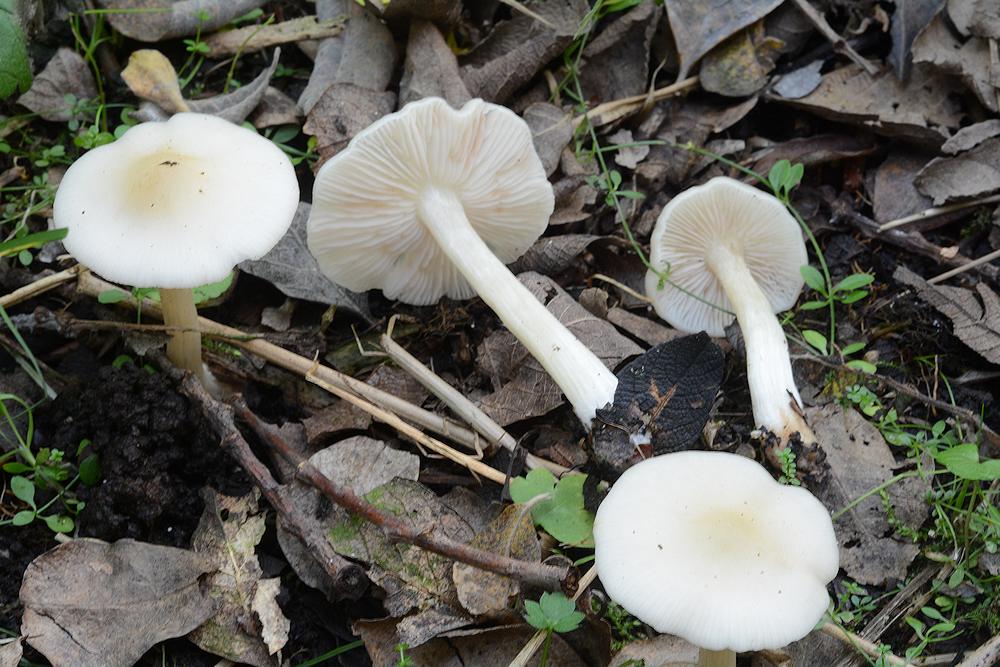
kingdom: Fungi
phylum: Basidiomycota
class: Agaricomycetes
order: Agaricales
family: Entolomataceae
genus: Entoloma
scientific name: Entoloma
